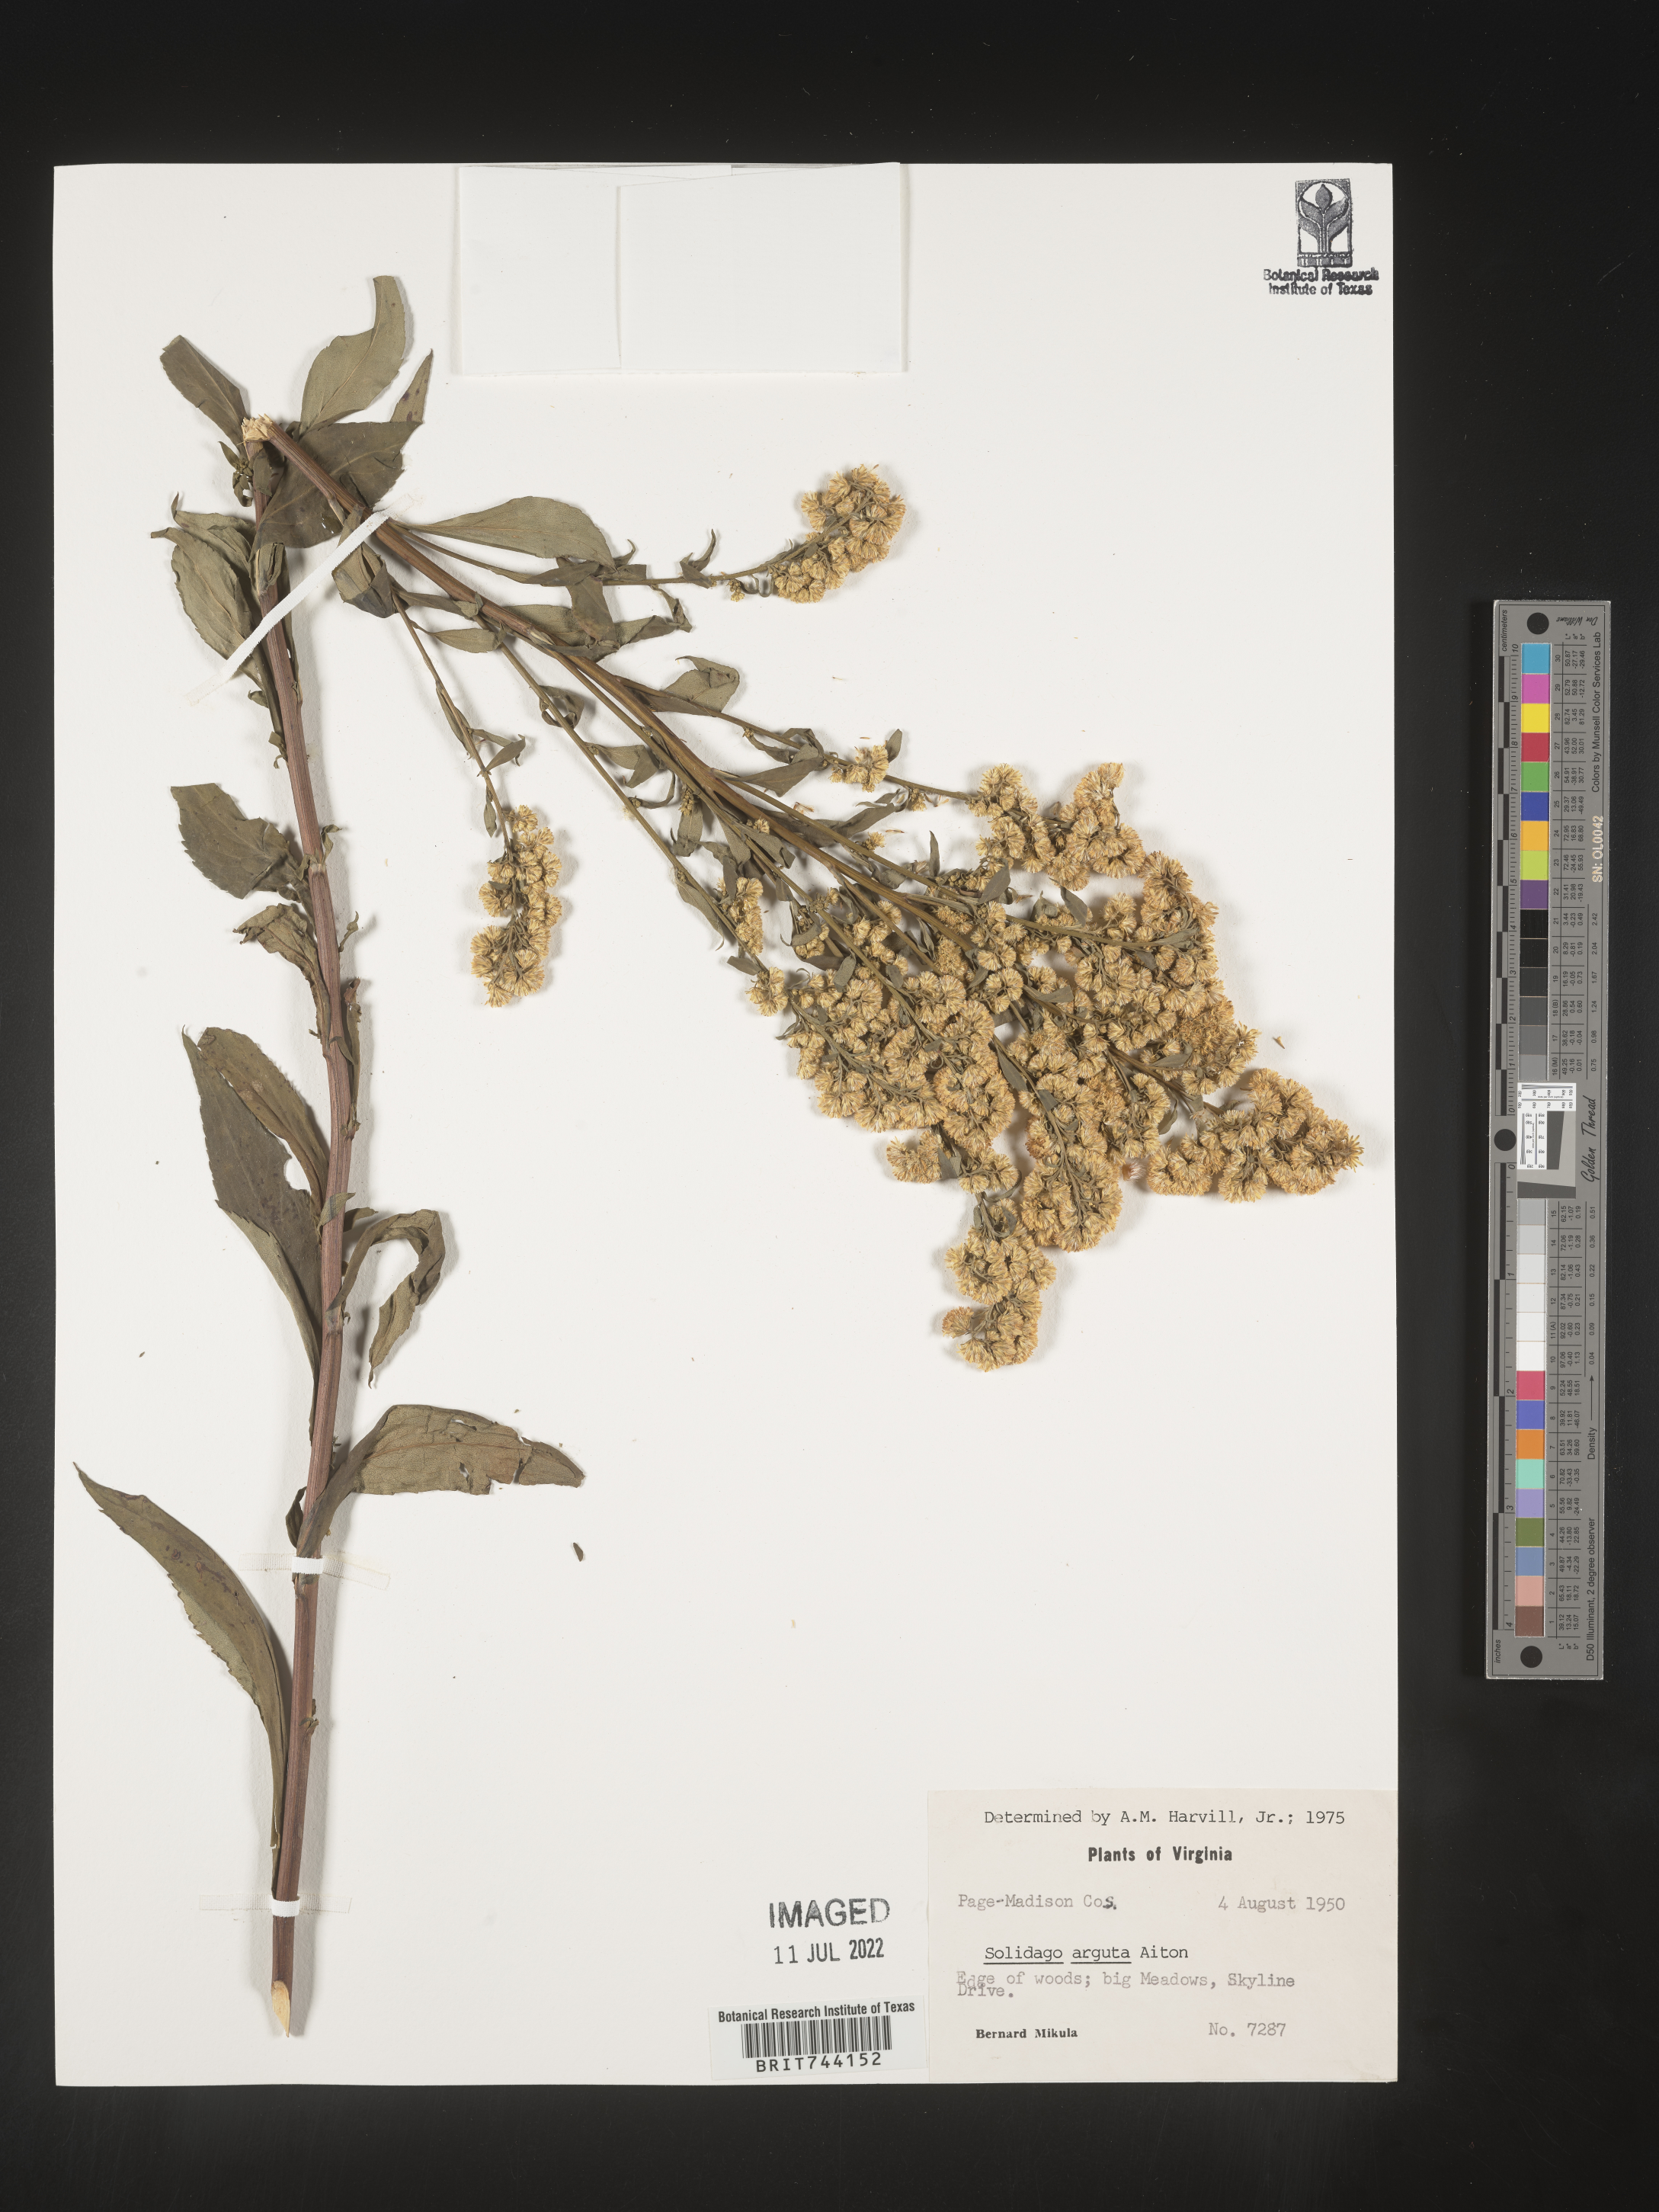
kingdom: Plantae
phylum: Tracheophyta
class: Magnoliopsida
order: Asterales
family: Asteraceae
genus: Solidago
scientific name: Solidago arguta
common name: Atlantic goldenrod
